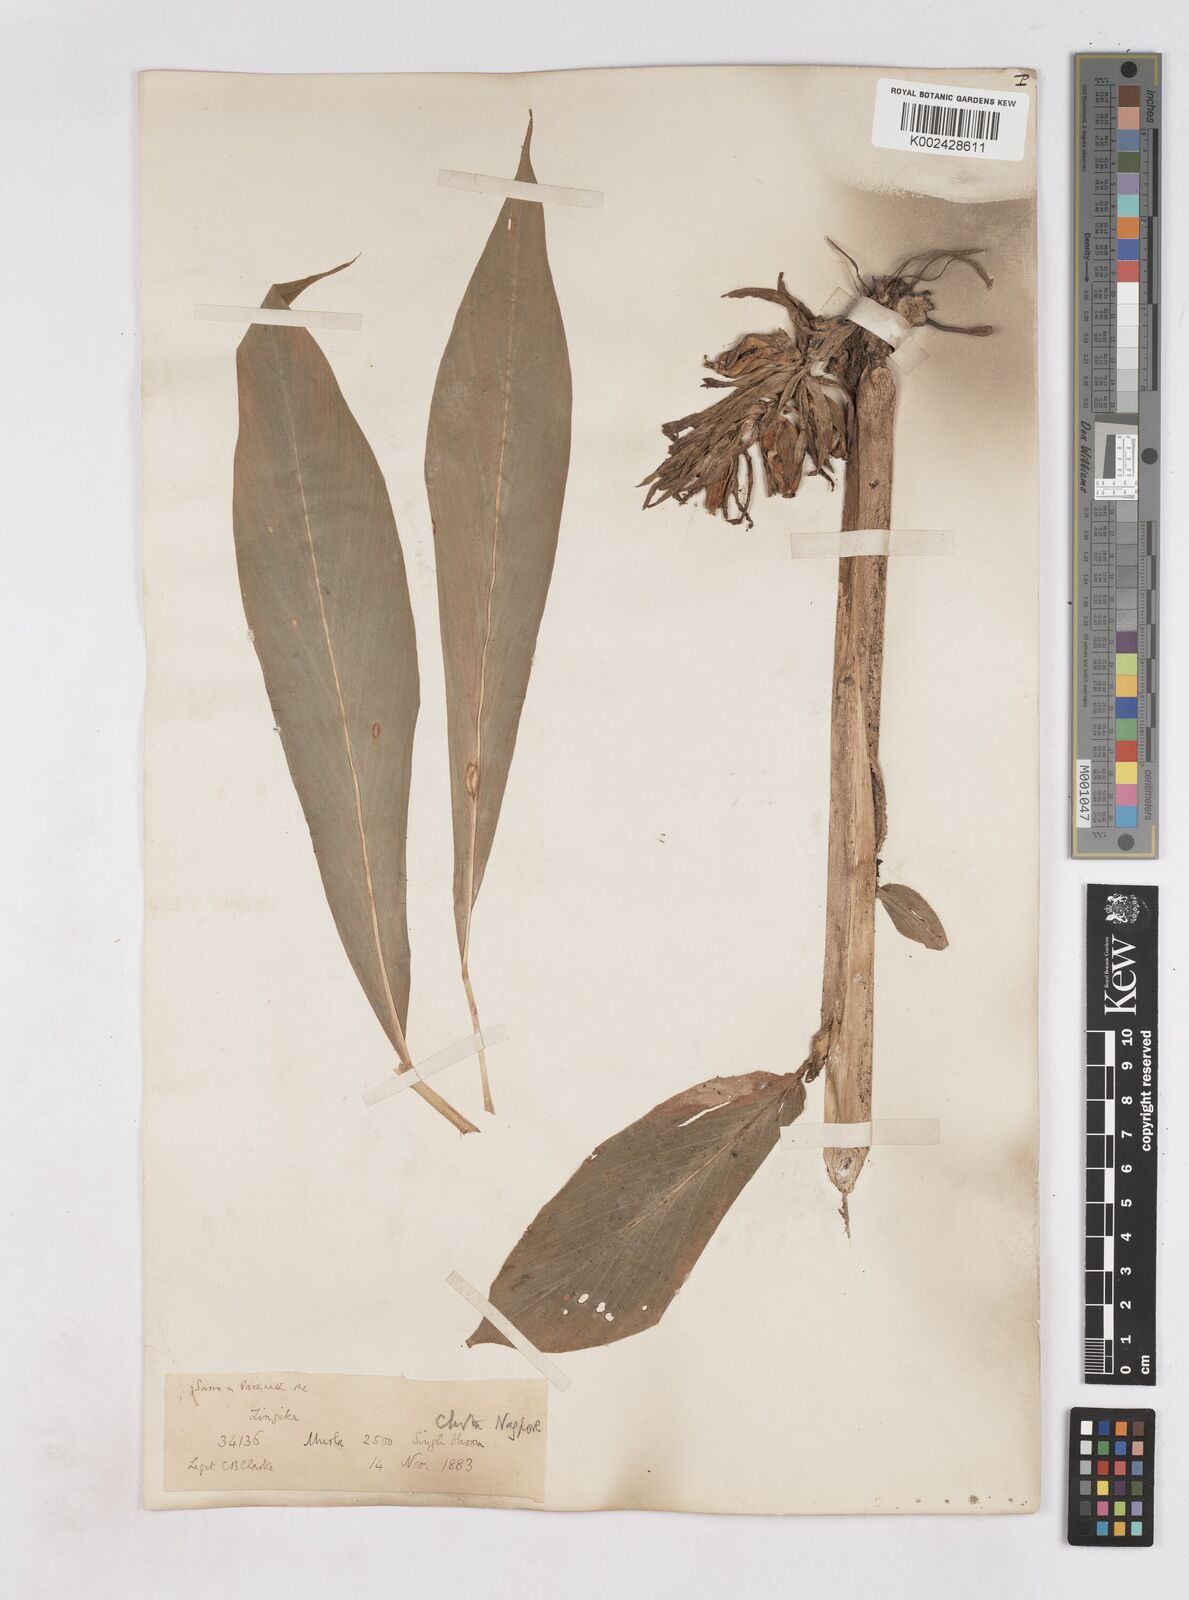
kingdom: Plantae
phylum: Tracheophyta
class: Liliopsida
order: Zingiberales
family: Zingiberaceae
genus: Zingiber
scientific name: Zingiber roseum
